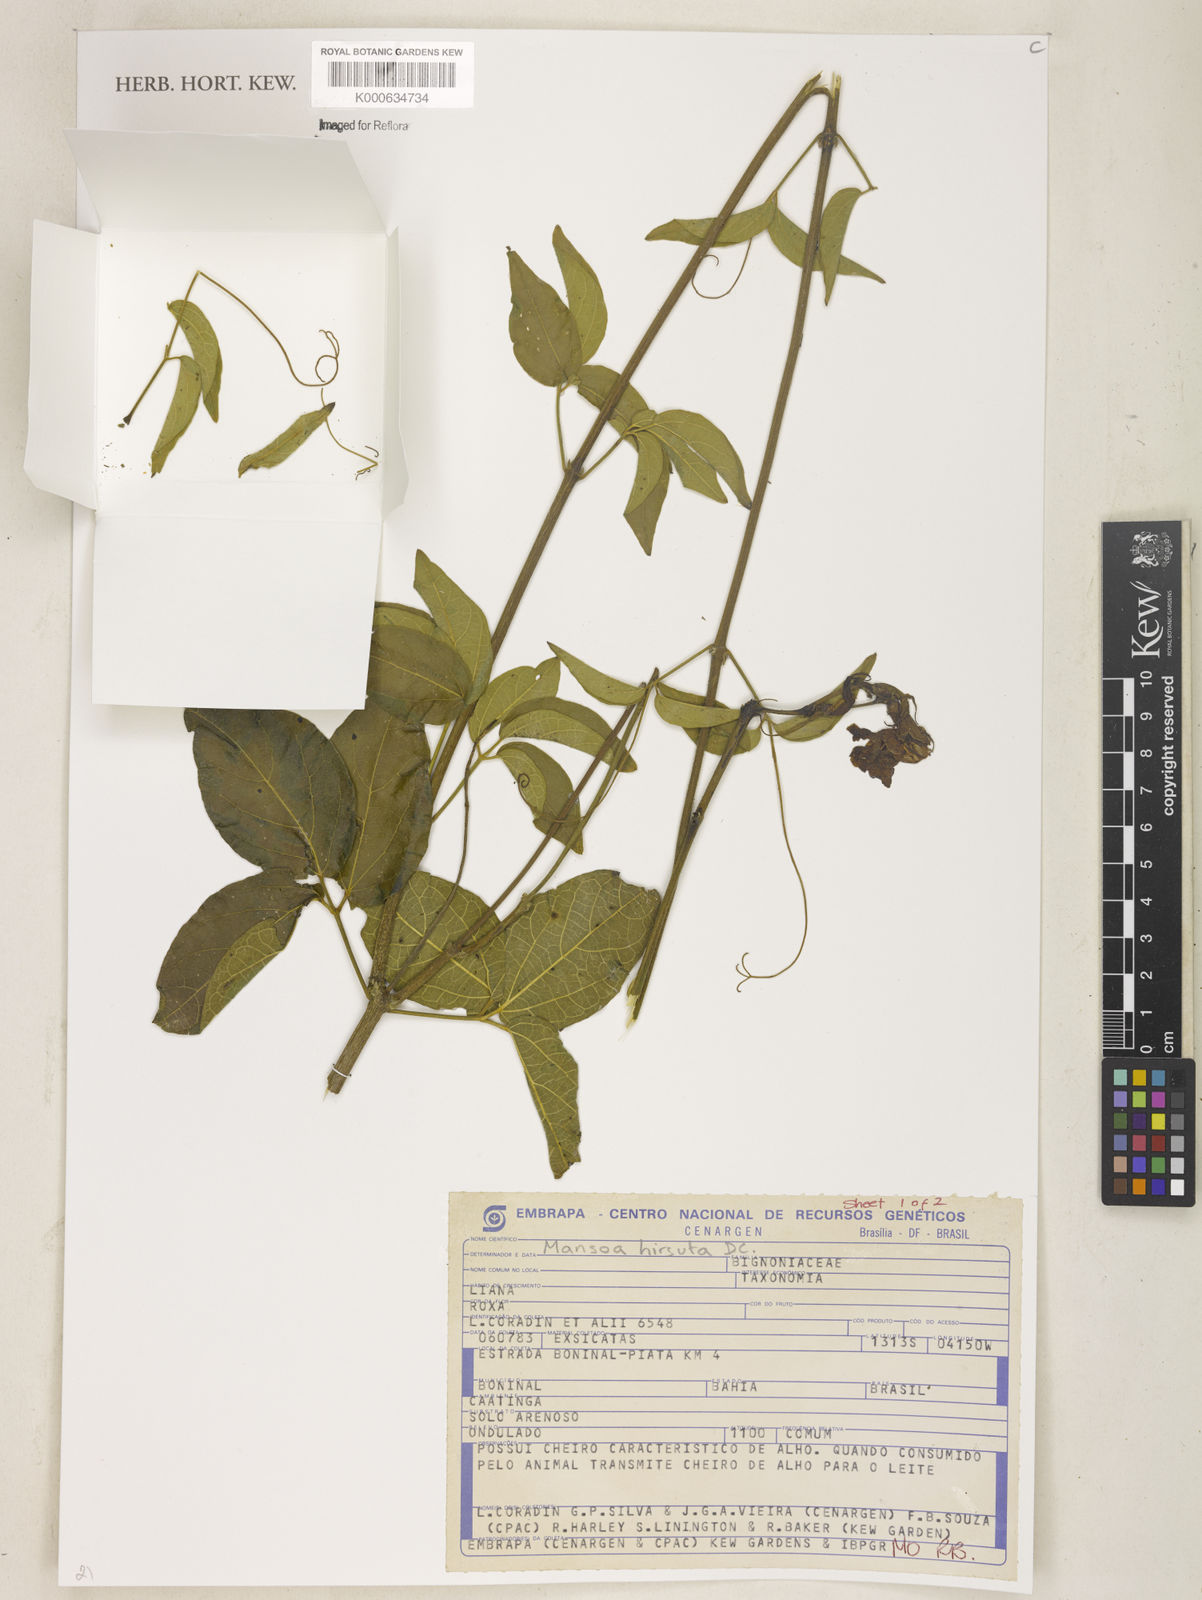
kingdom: Plantae
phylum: Tracheophyta
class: Magnoliopsida
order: Lamiales
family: Bignoniaceae
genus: Mansoa
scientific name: Mansoa hirsuta
